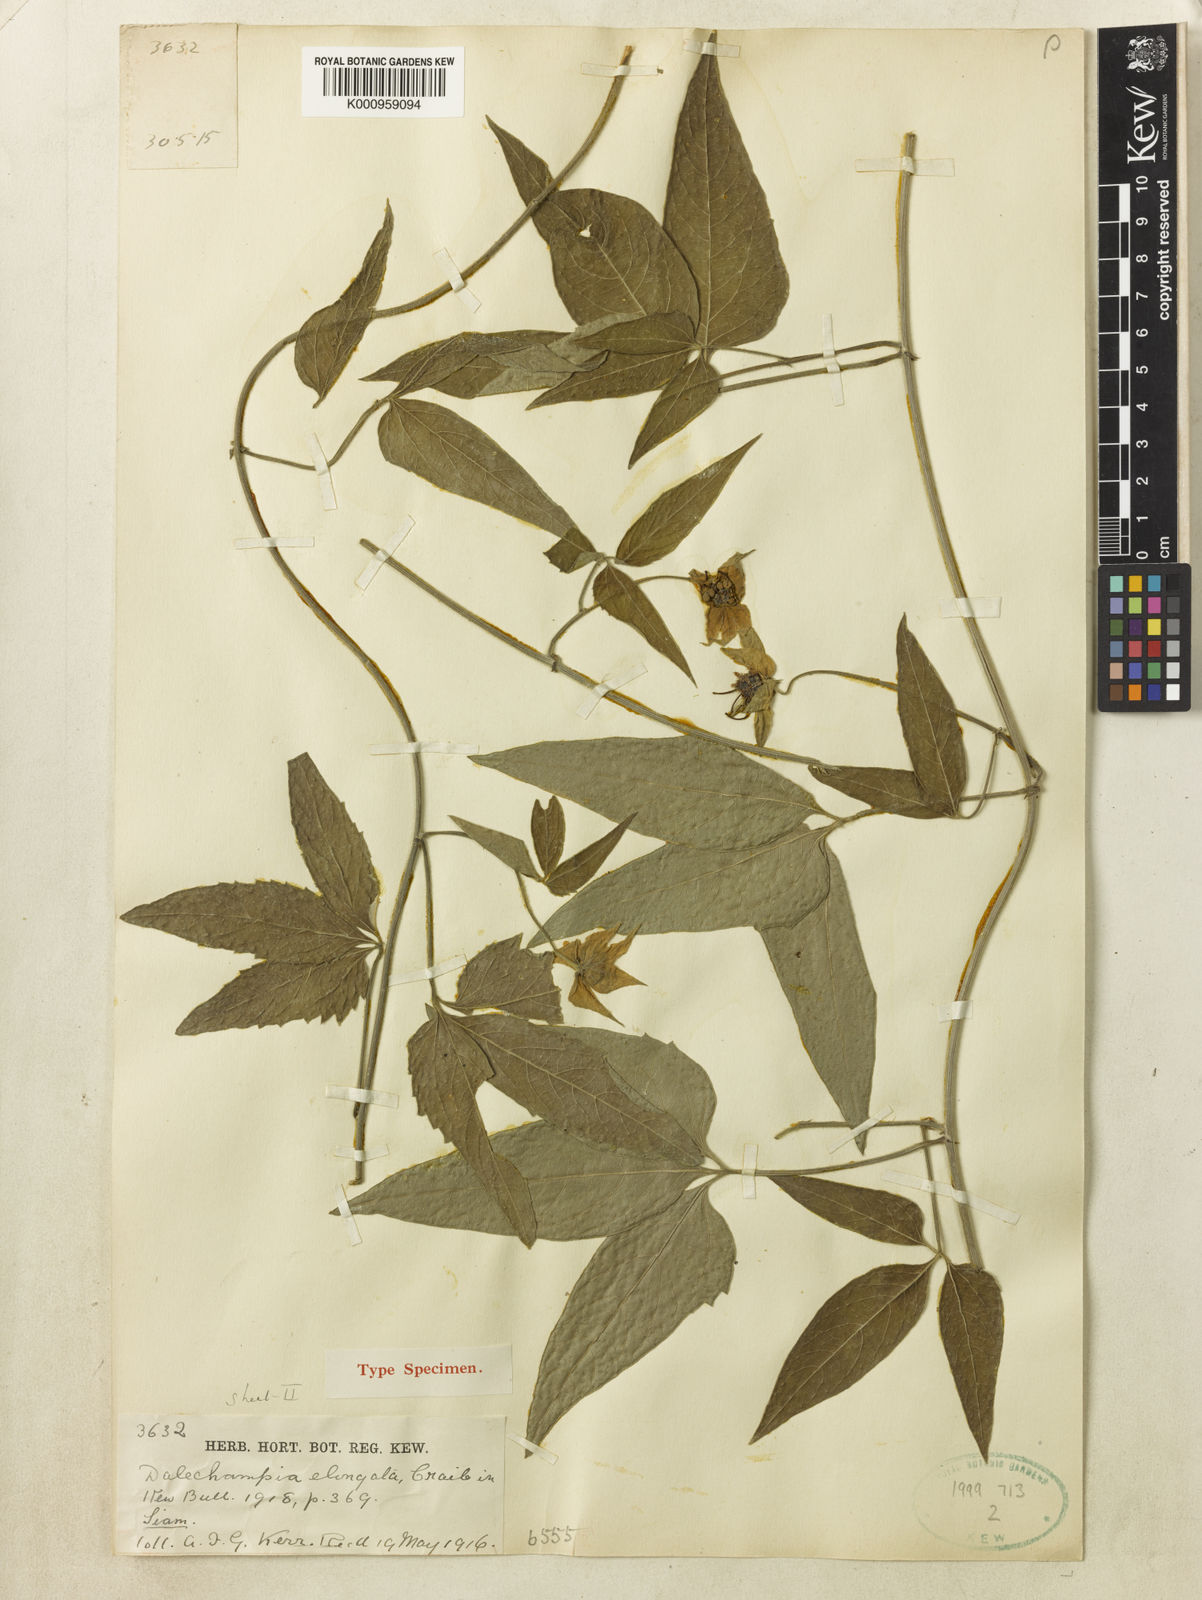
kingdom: Plantae
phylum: Tracheophyta
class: Magnoliopsida
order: Malpighiales
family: Euphorbiaceae
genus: Dalechampia
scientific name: Dalechampia elongata
